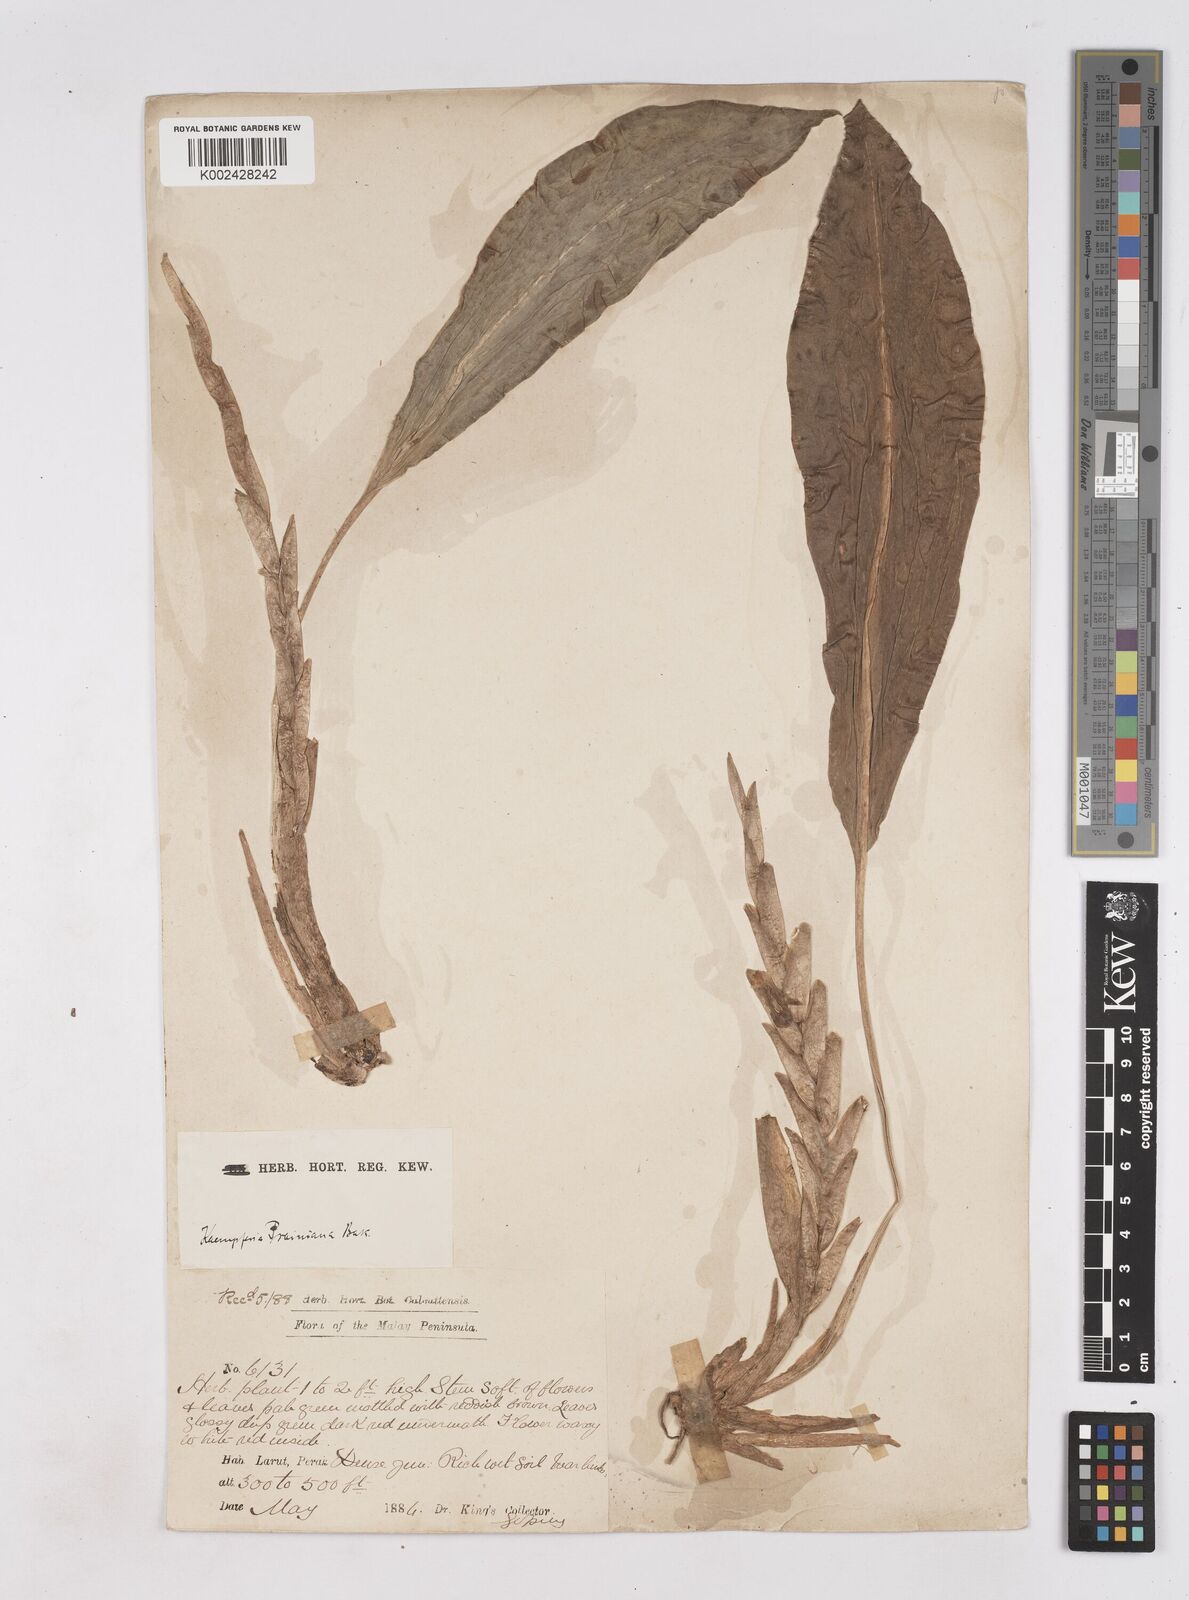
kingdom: Plantae
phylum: Tracheophyta
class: Liliopsida
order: Zingiberales
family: Zingiberaceae
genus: Boesenbergia
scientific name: Boesenbergia prainiana
